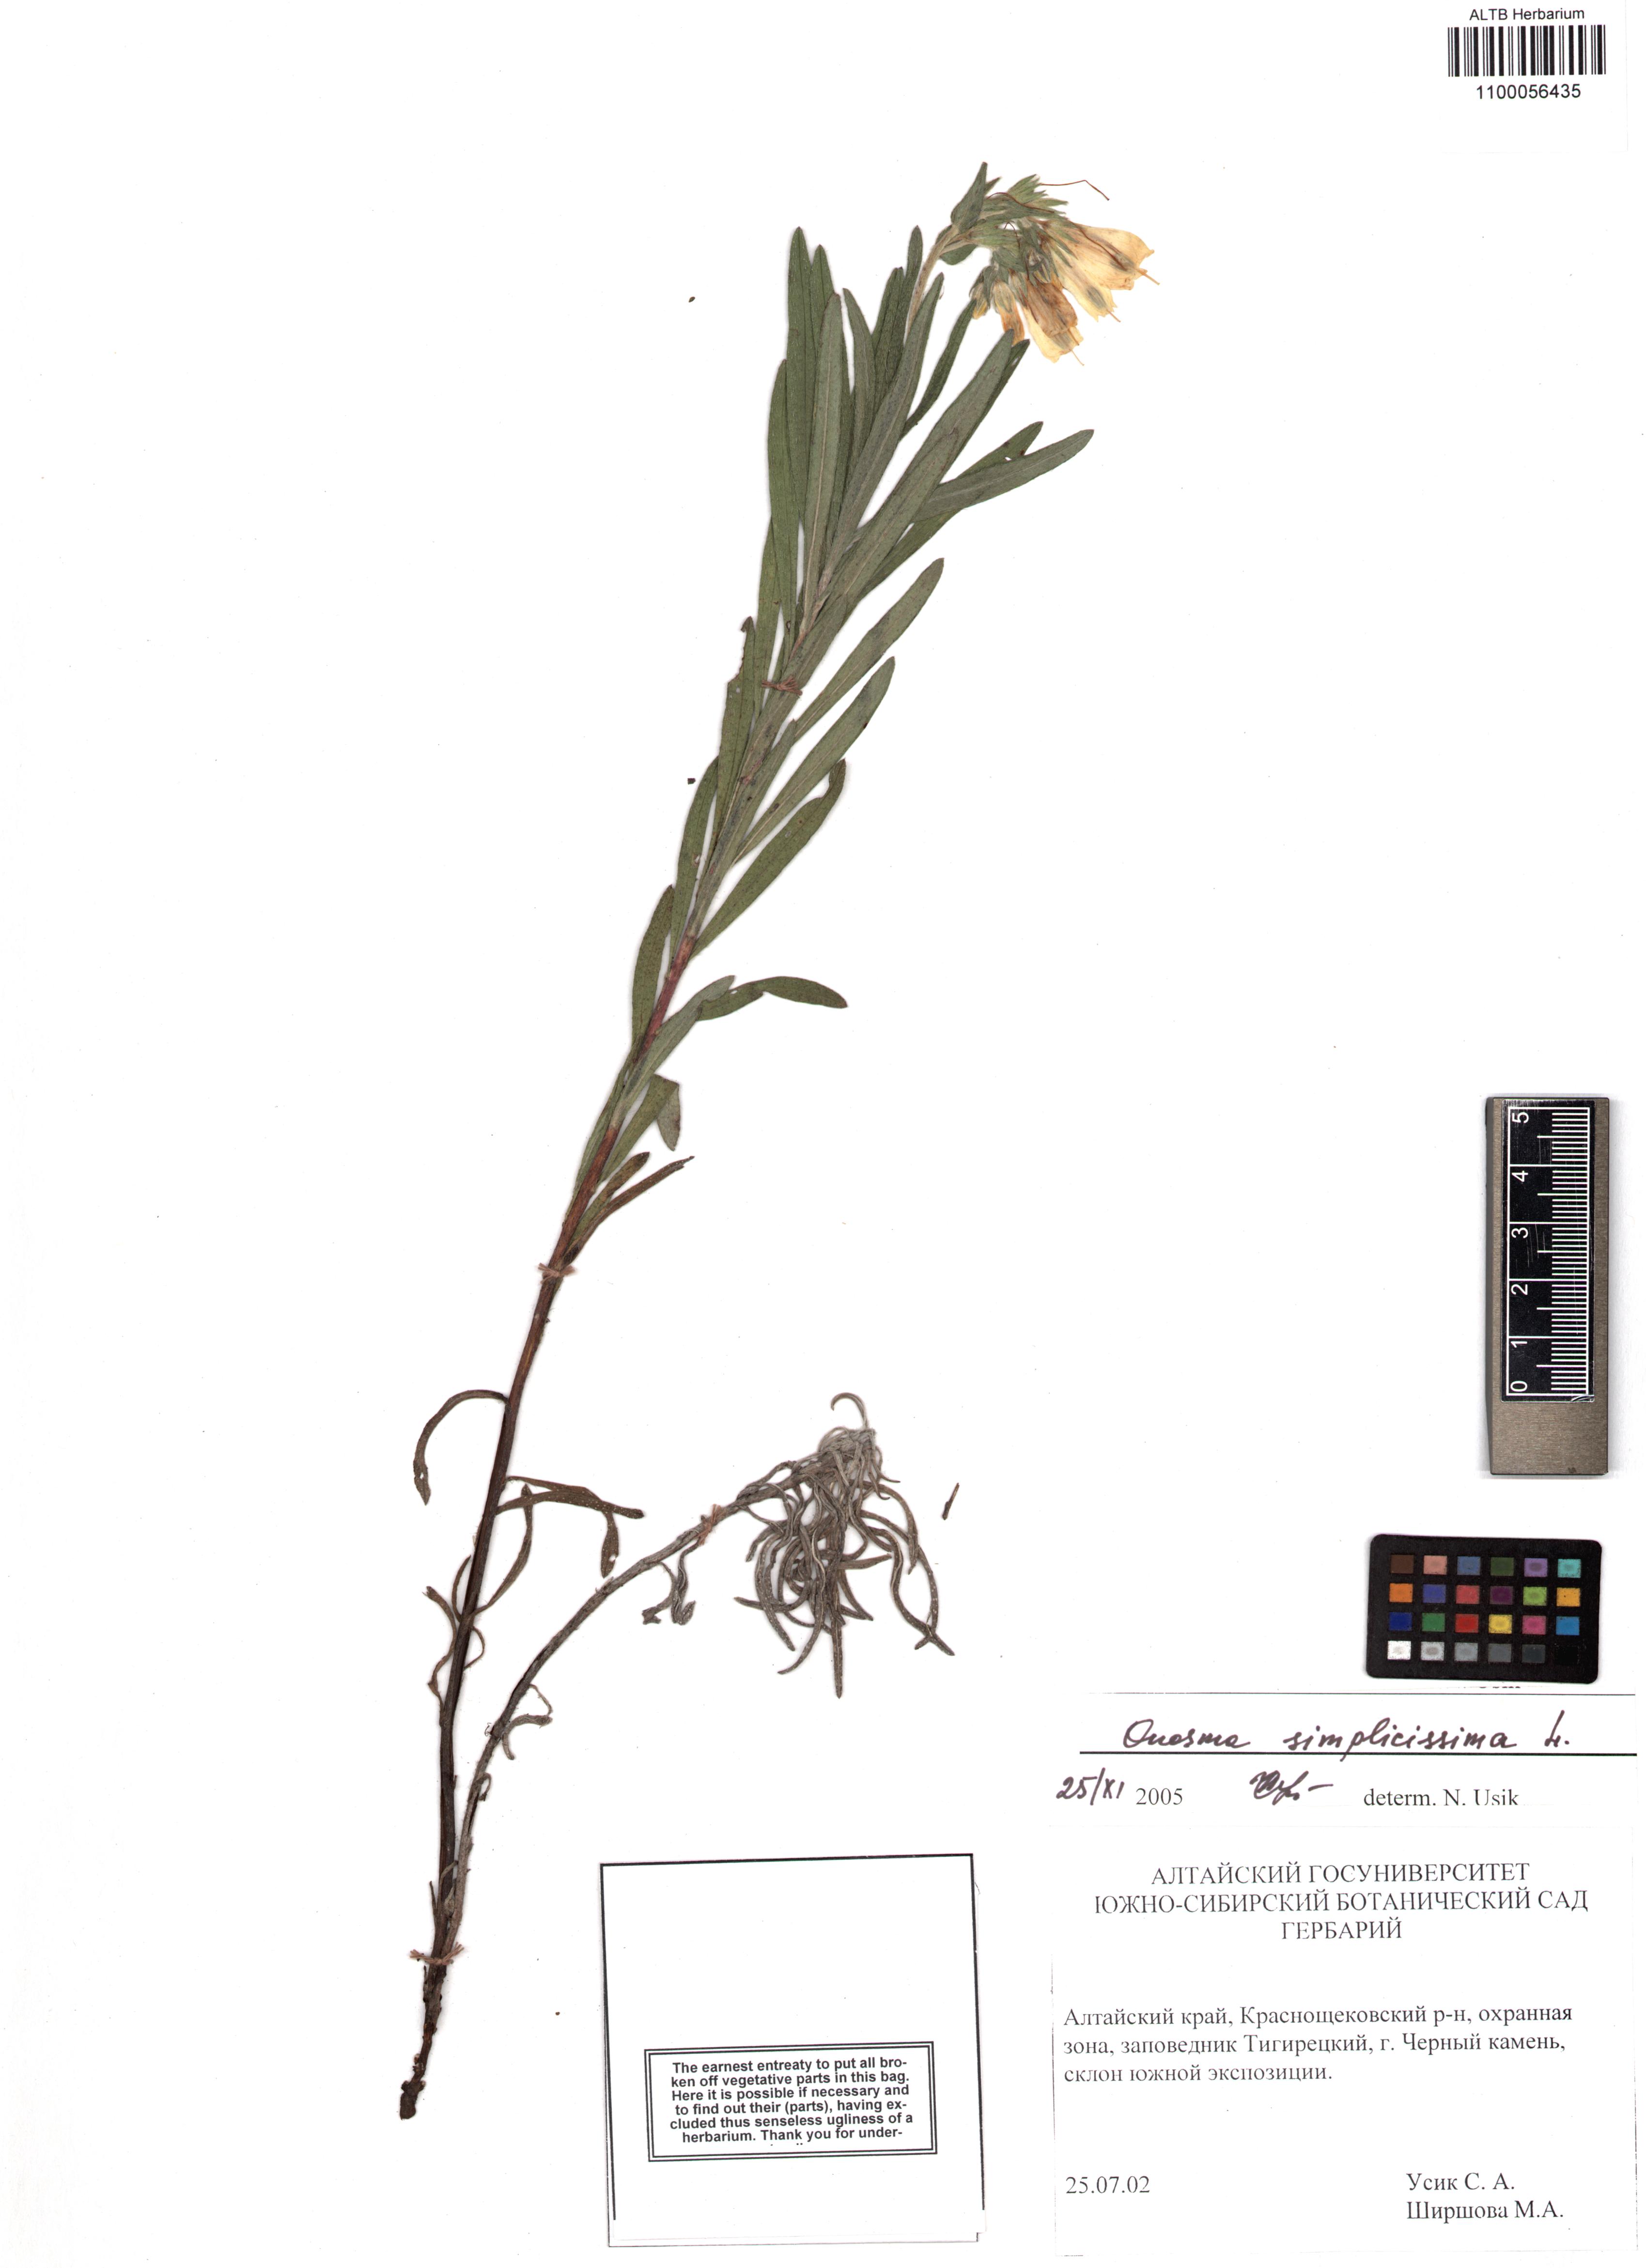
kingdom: Plantae
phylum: Tracheophyta
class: Magnoliopsida
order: Boraginales
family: Boraginaceae
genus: Onosma
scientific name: Onosma simplicissima
